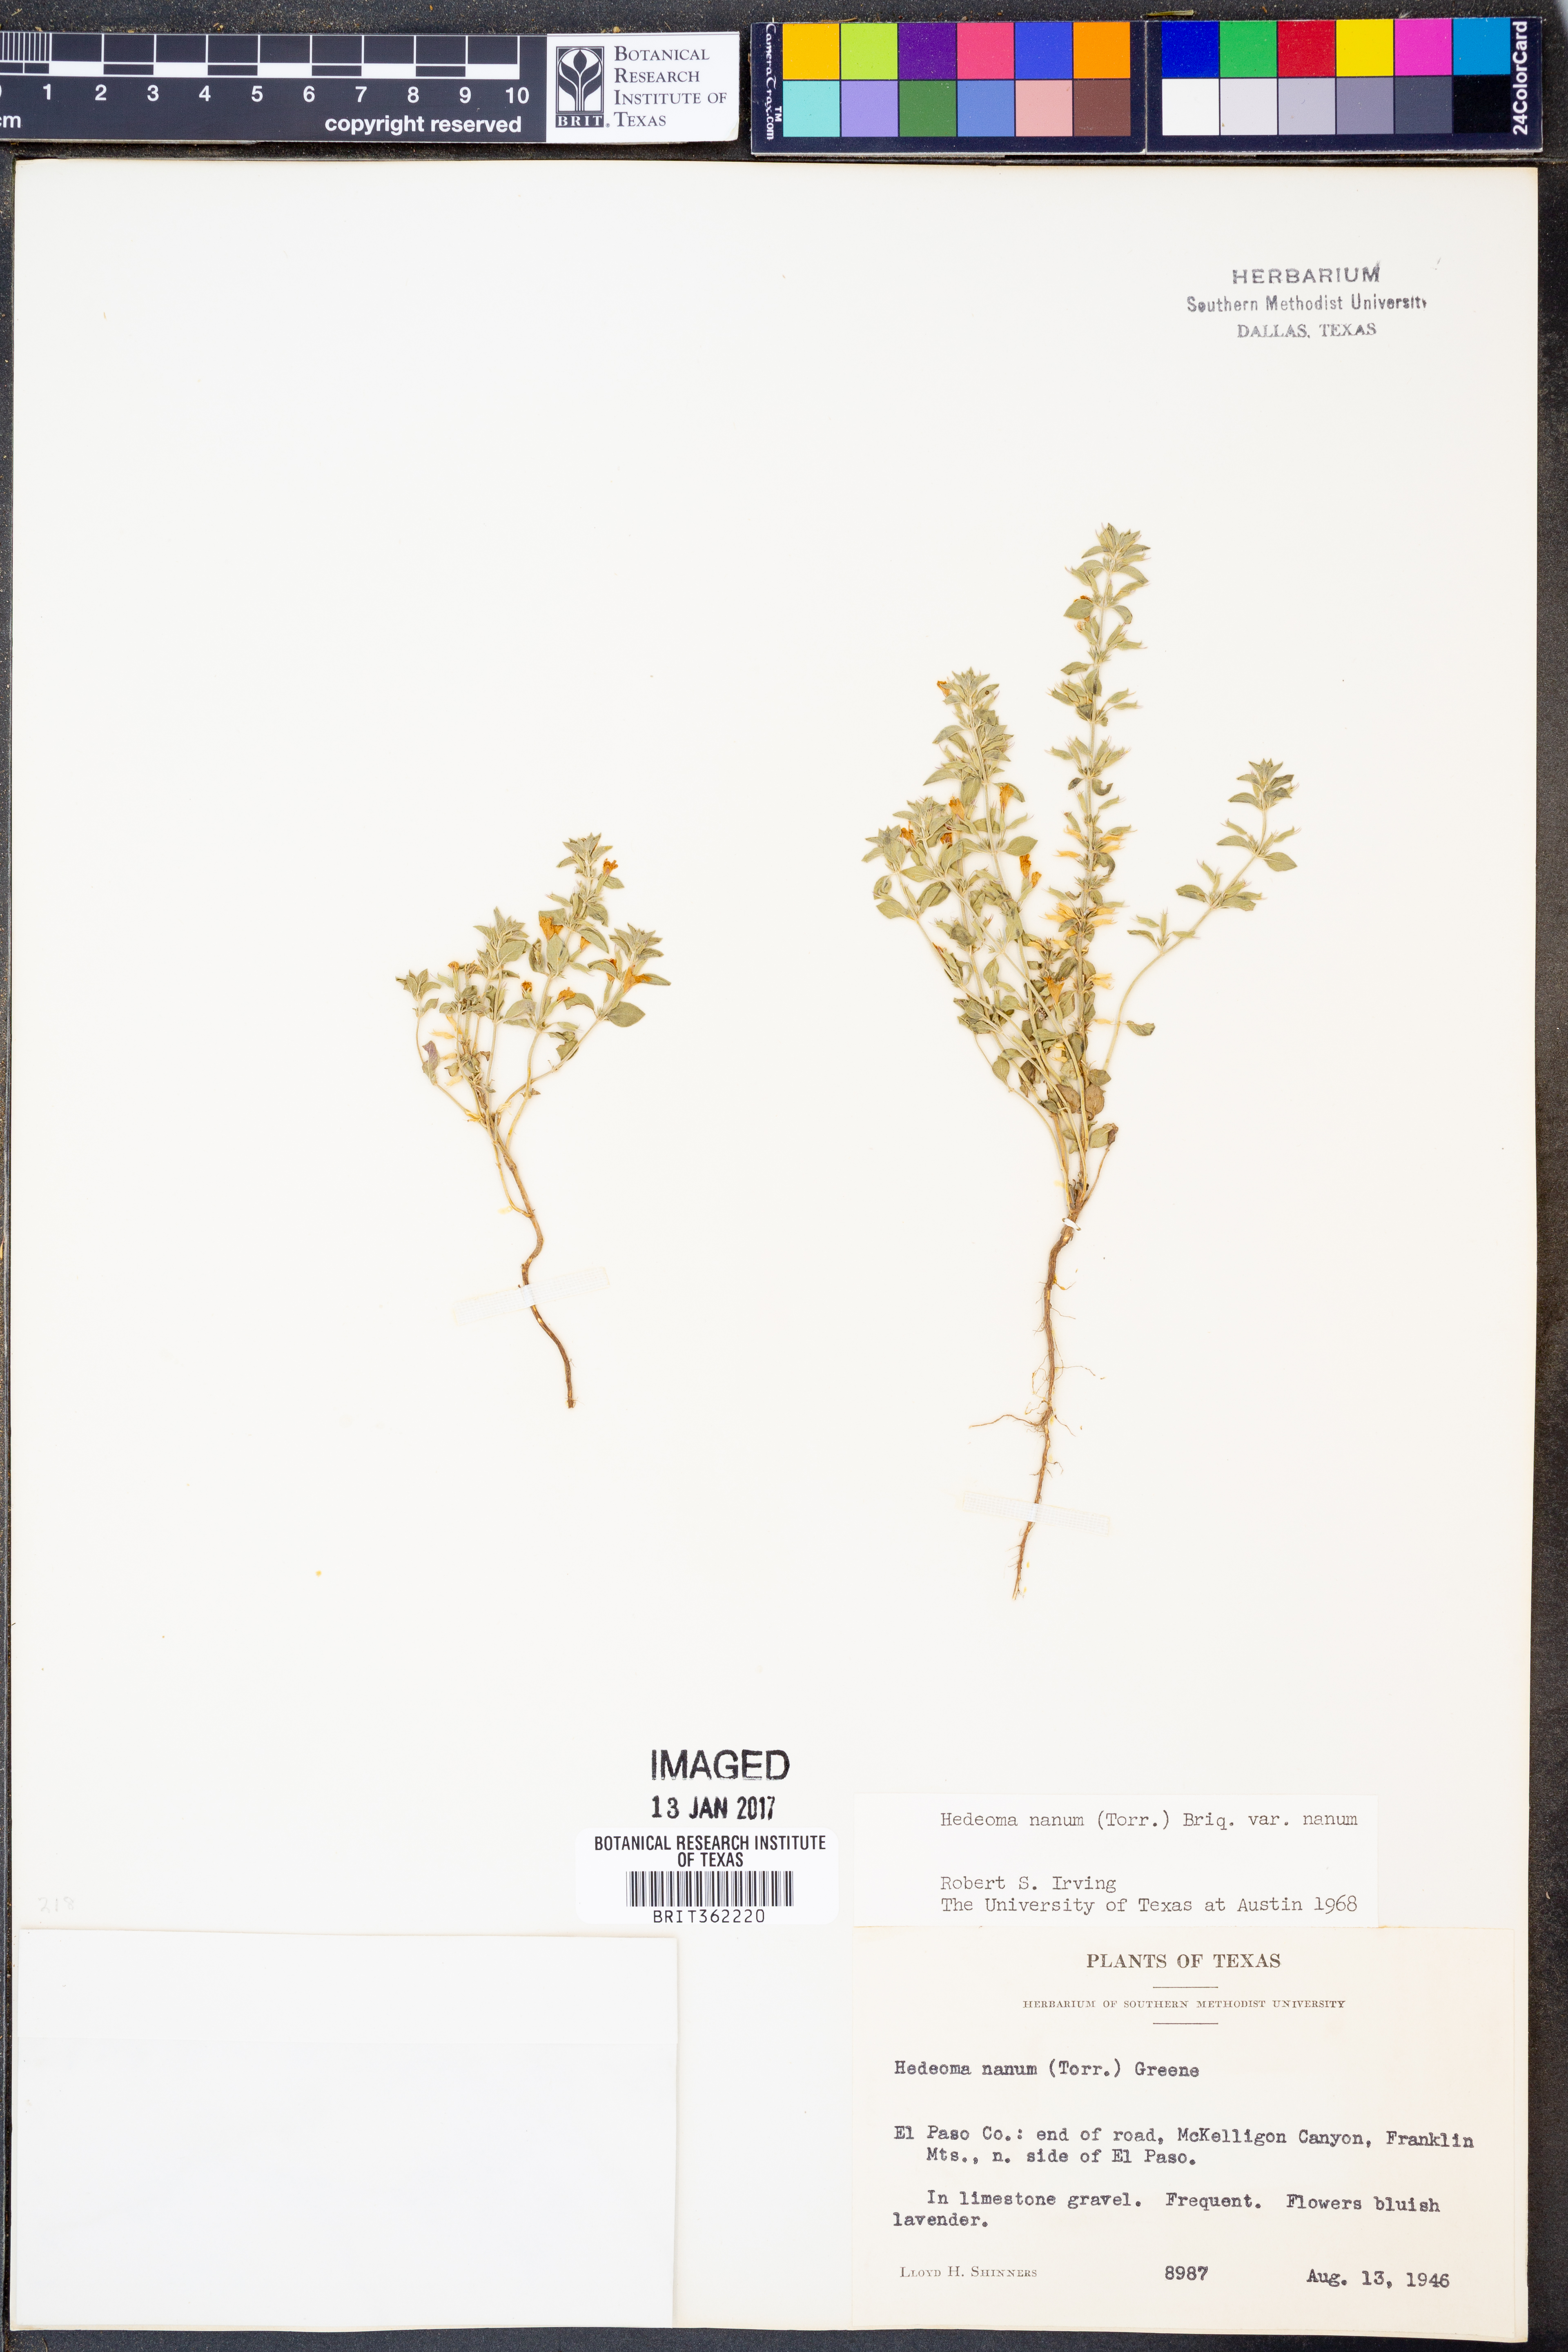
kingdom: Plantae
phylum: Tracheophyta
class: Magnoliopsida
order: Lamiales
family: Lamiaceae
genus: Hedeoma
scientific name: Hedeoma nana
